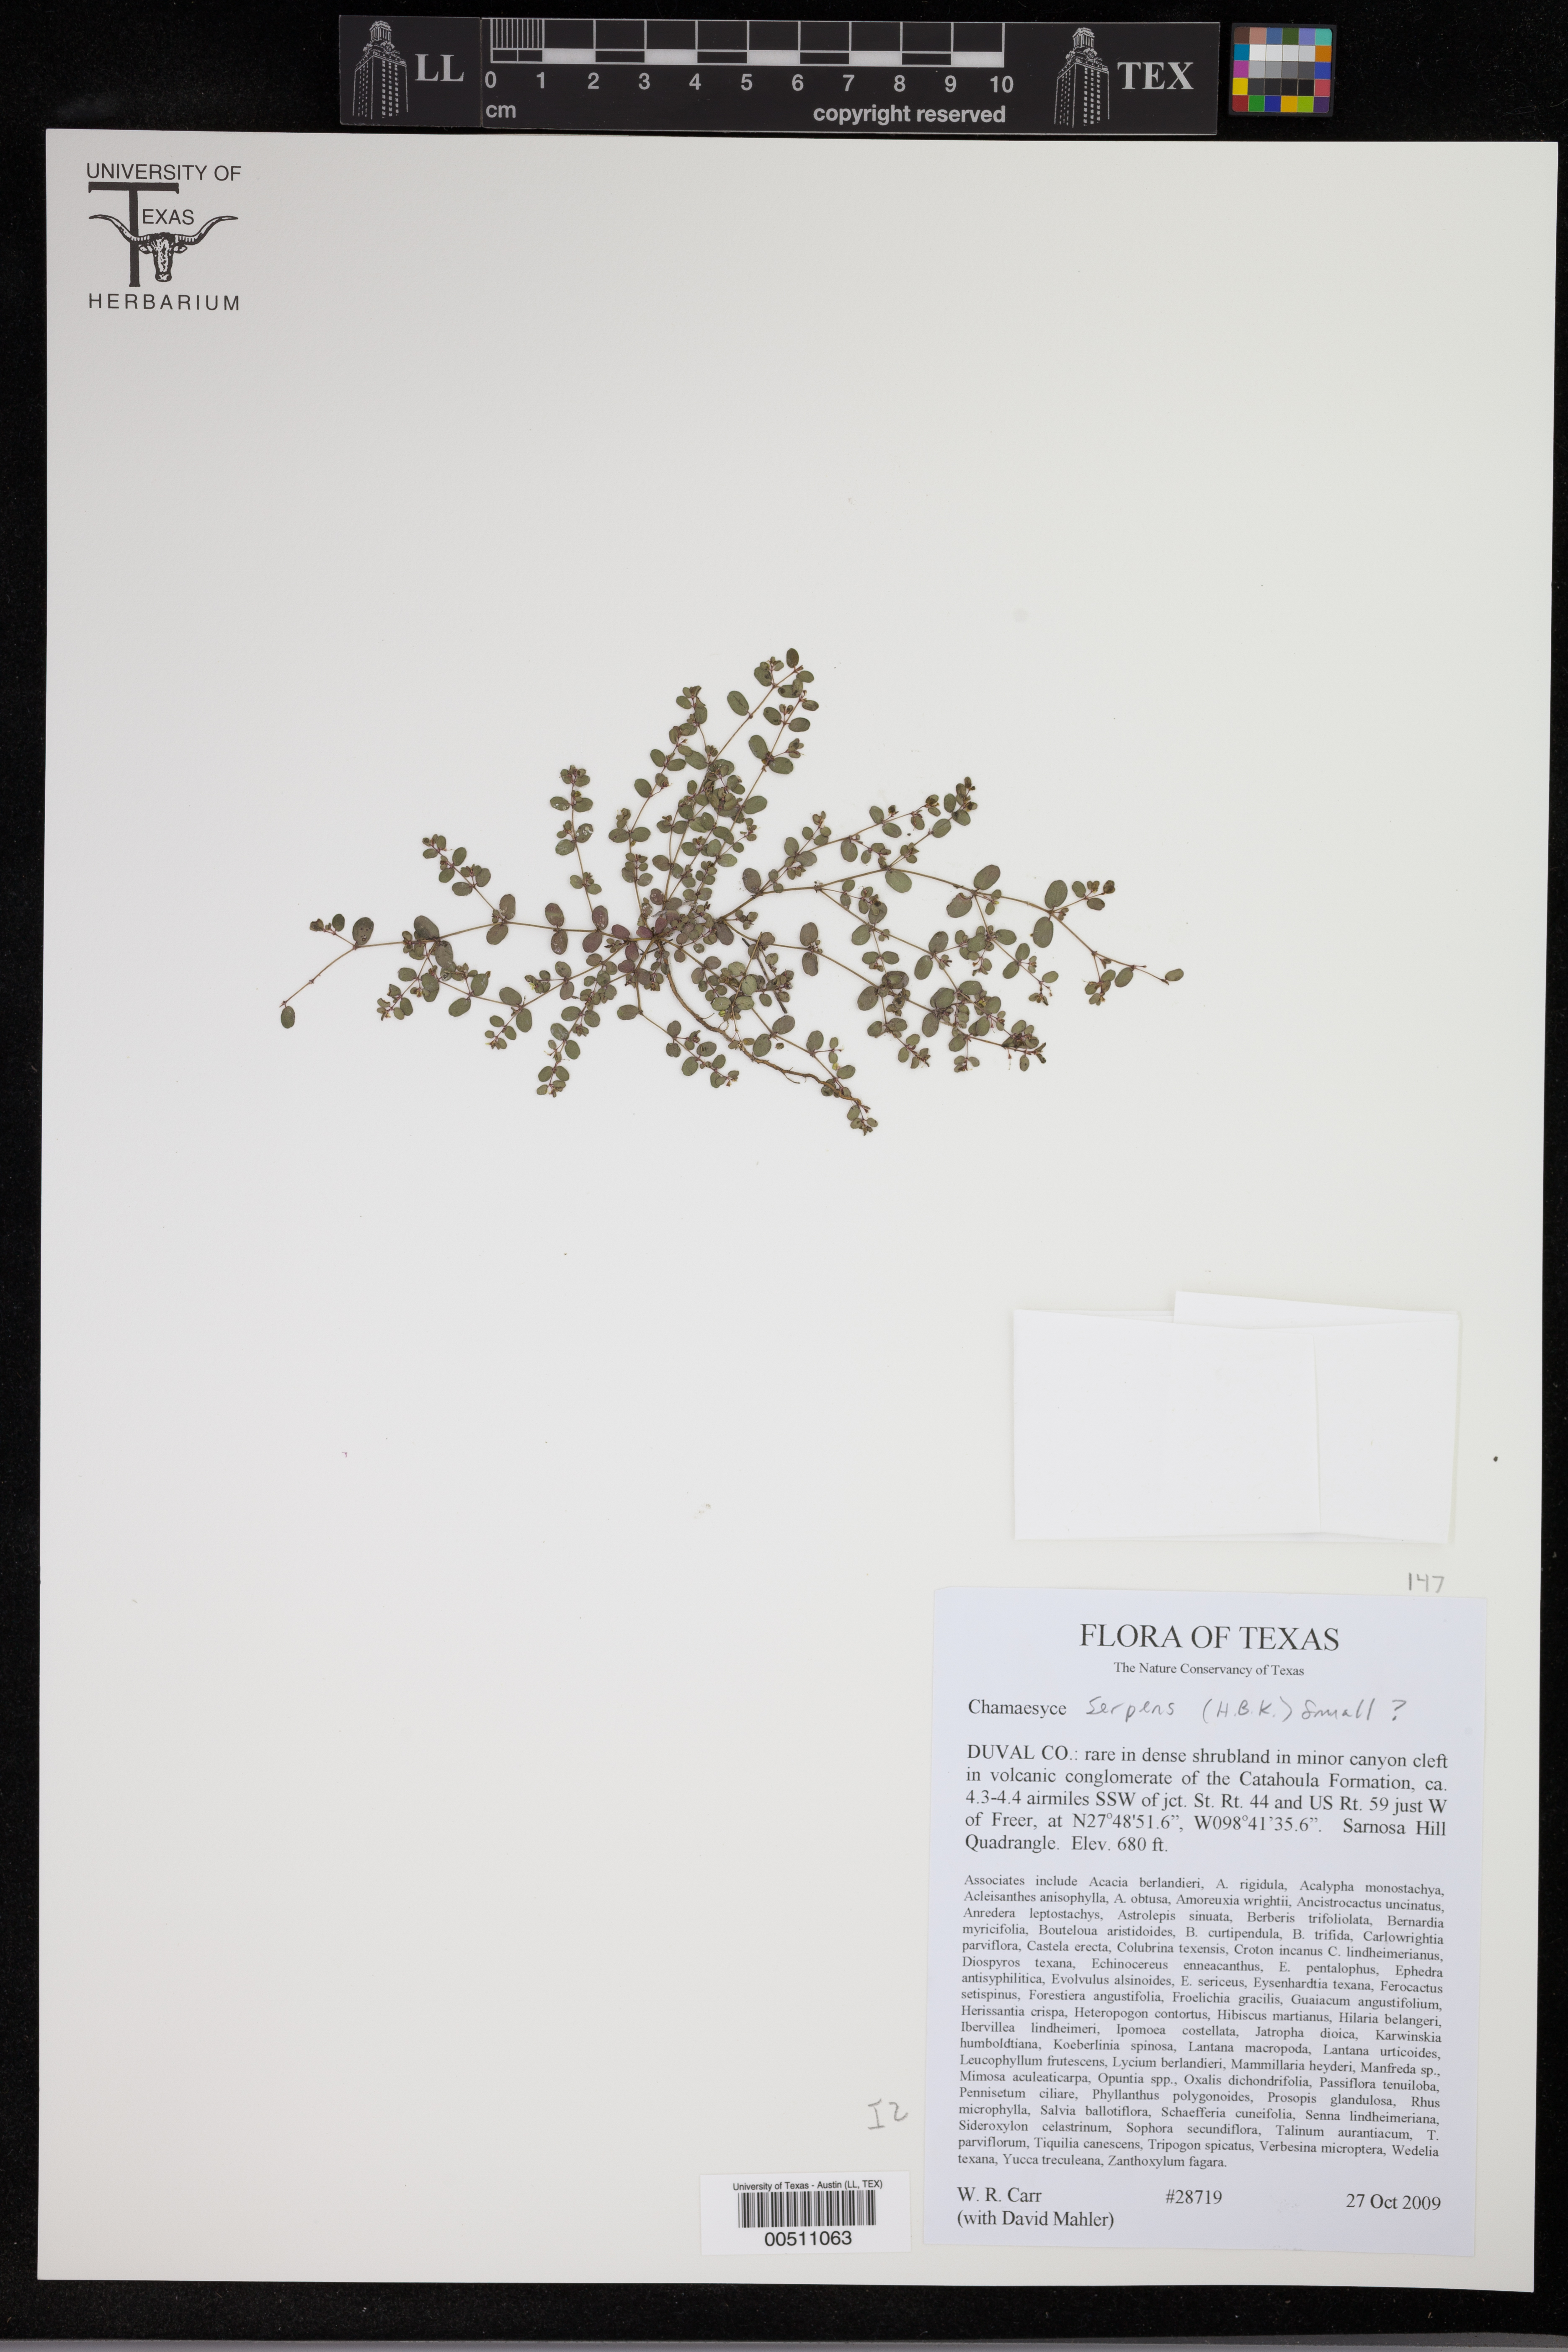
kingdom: Plantae
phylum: Tracheophyta
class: Magnoliopsida
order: Malpighiales
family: Euphorbiaceae
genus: Euphorbia
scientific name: Euphorbia serpens
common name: Matted sandmat
